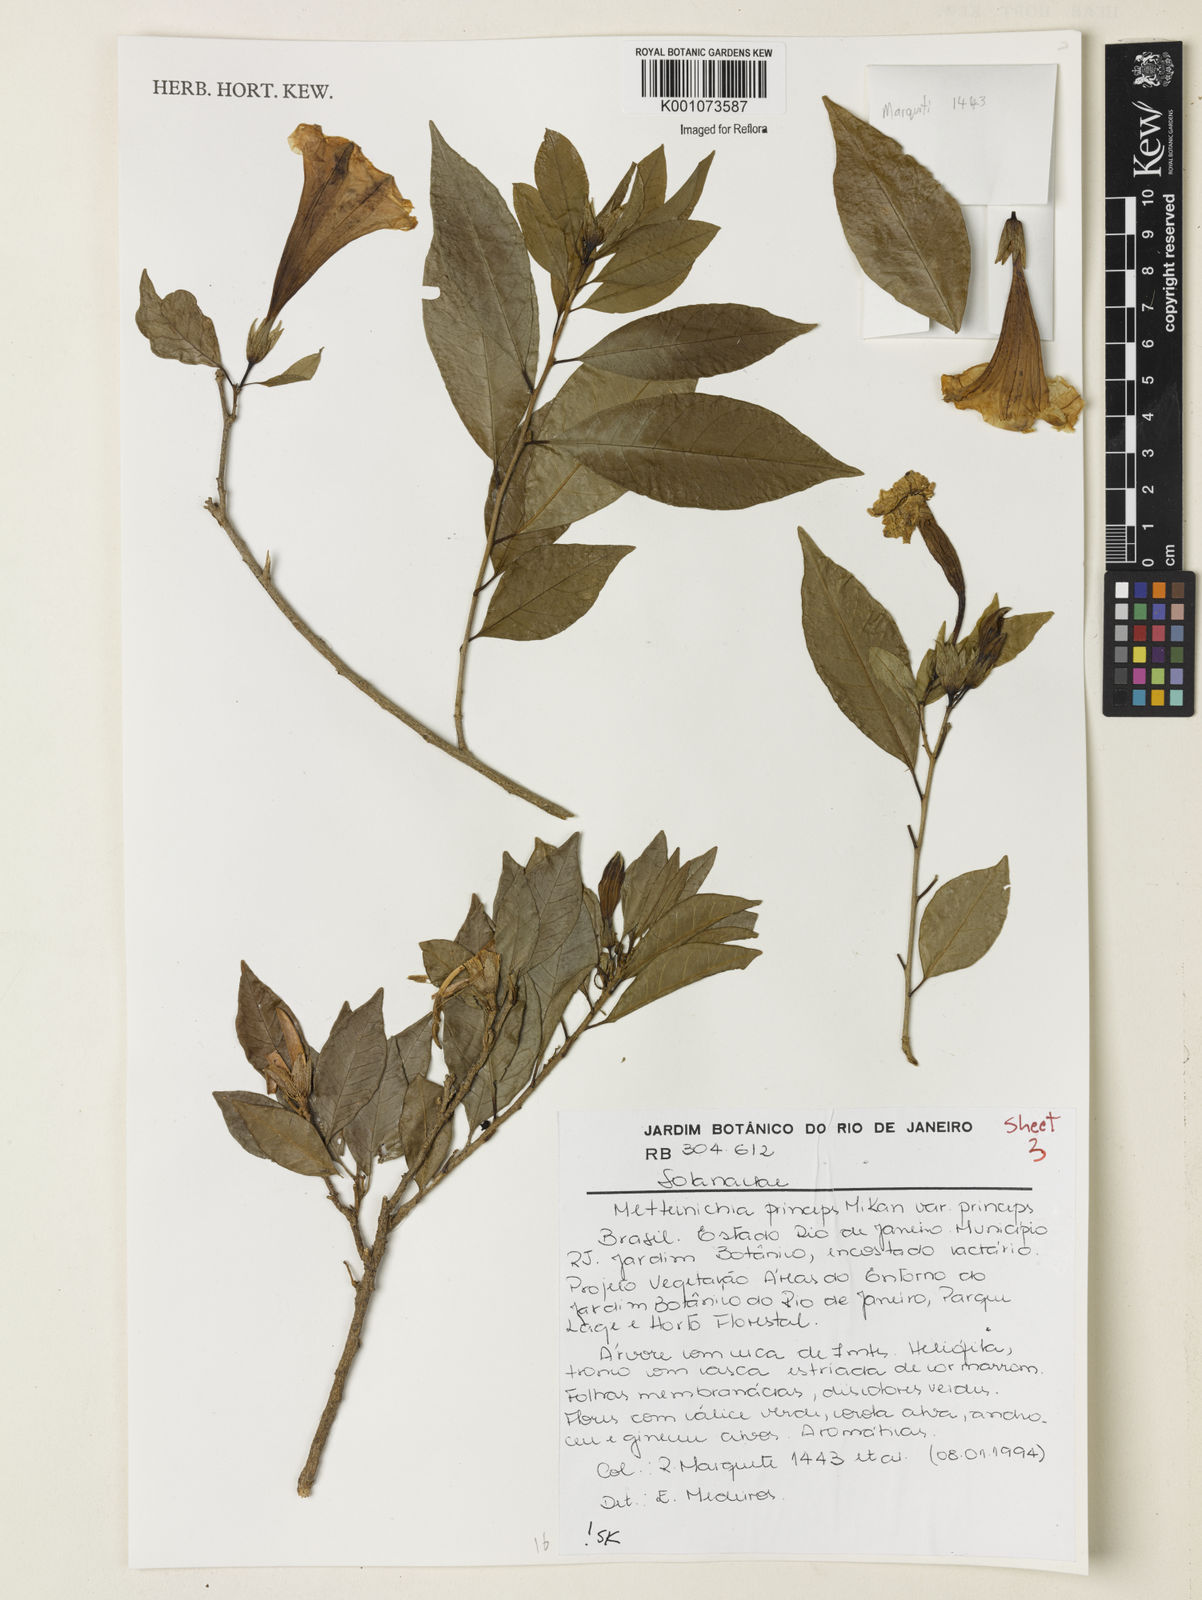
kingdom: Plantae
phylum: Tracheophyta
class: Magnoliopsida
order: Solanales
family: Solanaceae
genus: Metternichia
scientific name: Metternichia
